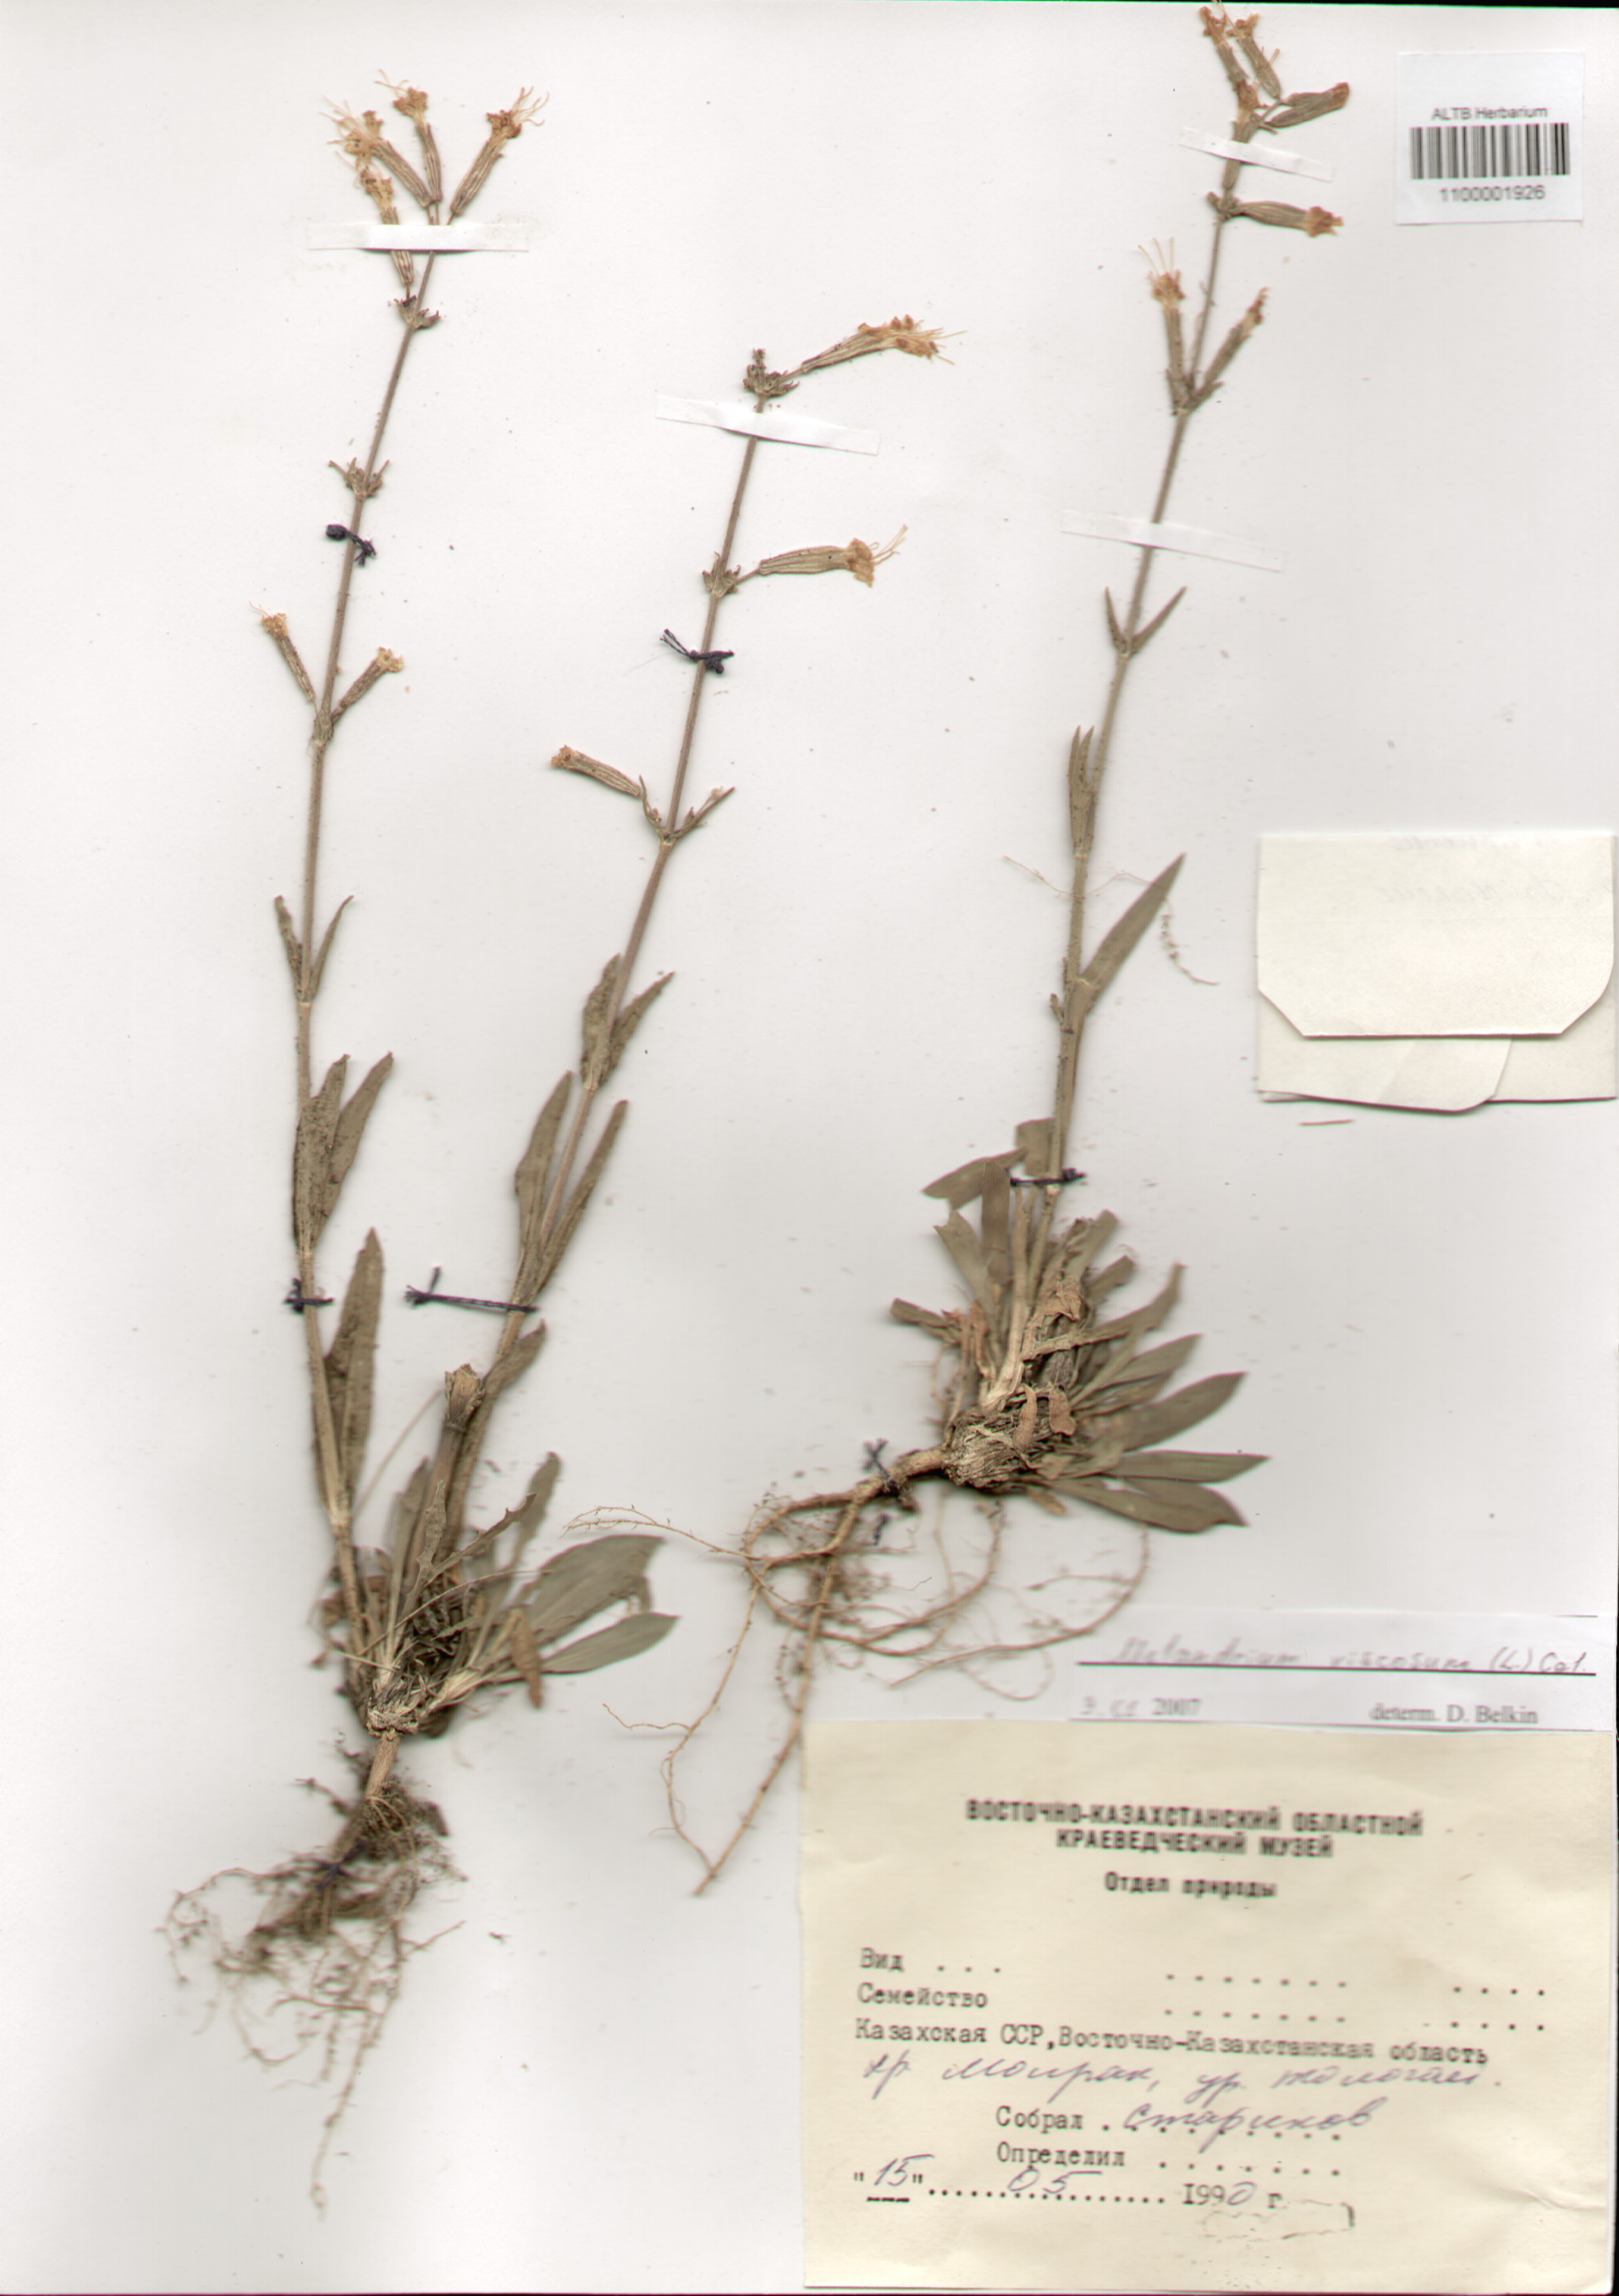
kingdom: Plantae
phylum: Tracheophyta
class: Magnoliopsida
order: Caryophyllales
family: Caryophyllaceae
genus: Silene
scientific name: Silene viscosa
